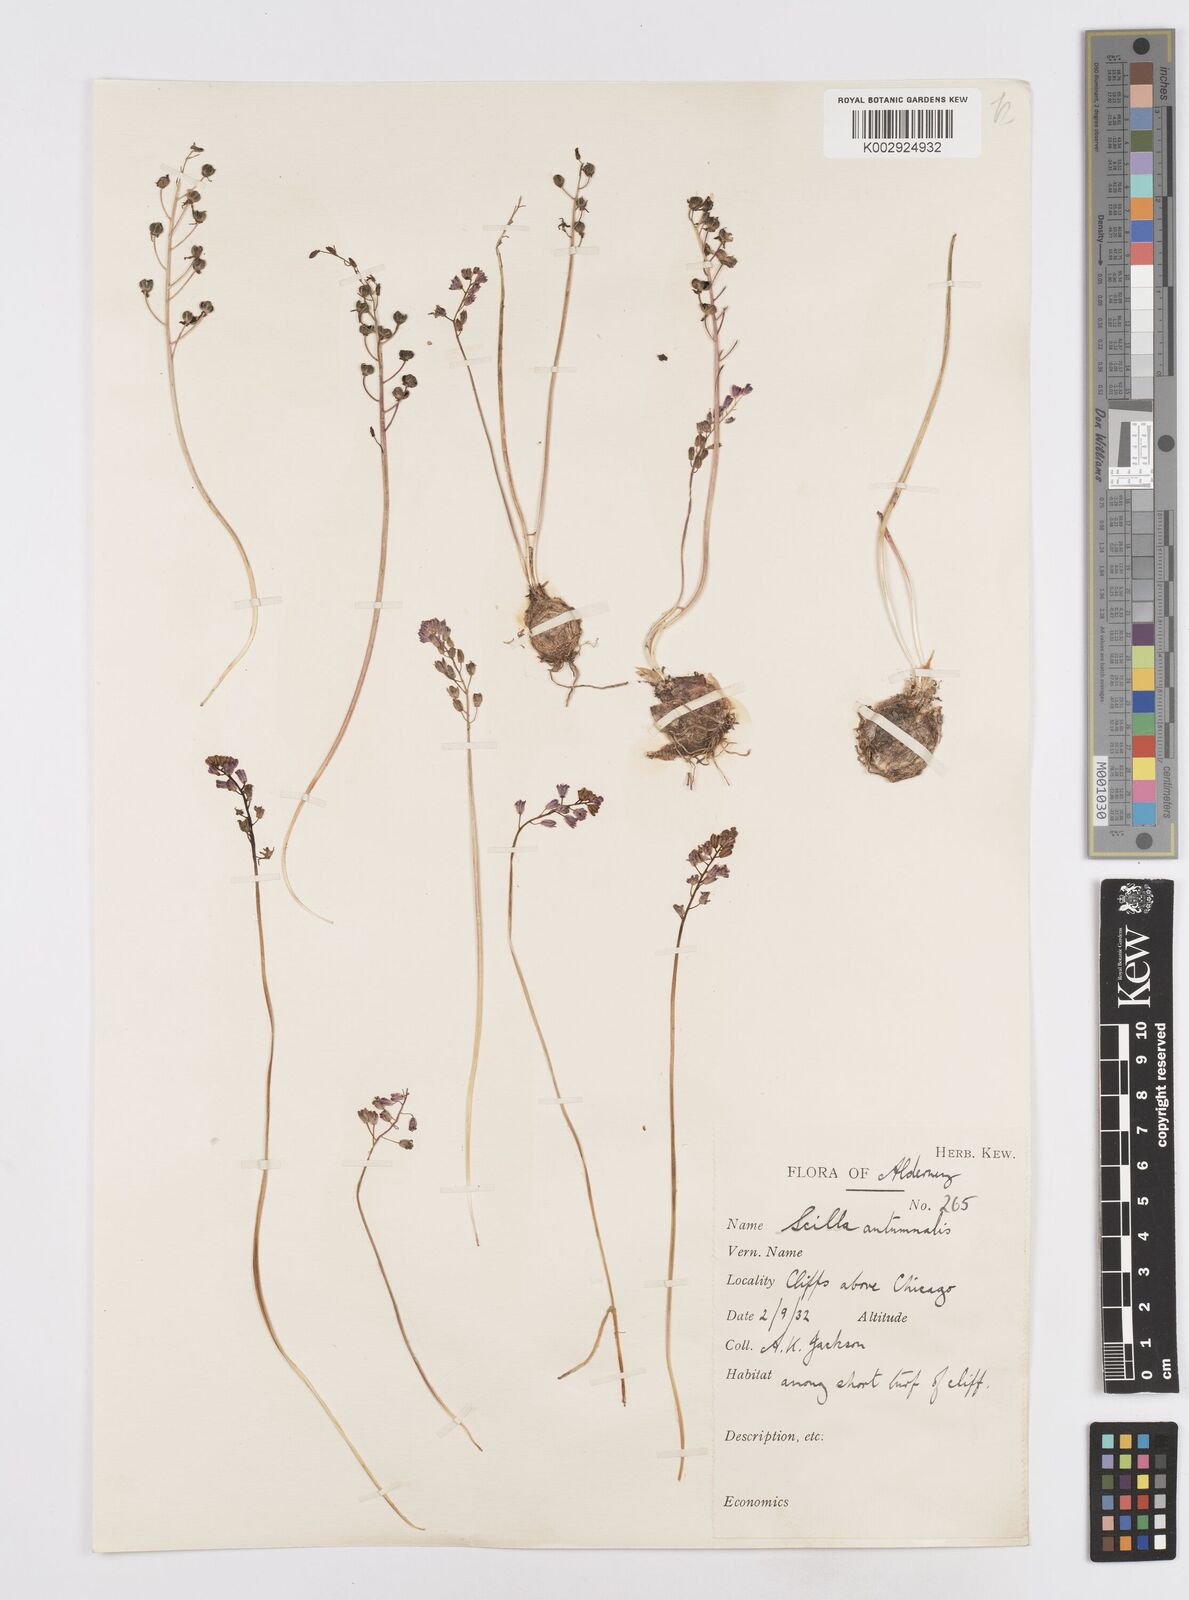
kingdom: Plantae
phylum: Tracheophyta
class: Liliopsida
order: Asparagales
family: Asparagaceae
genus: Prospero
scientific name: Prospero autumnale
